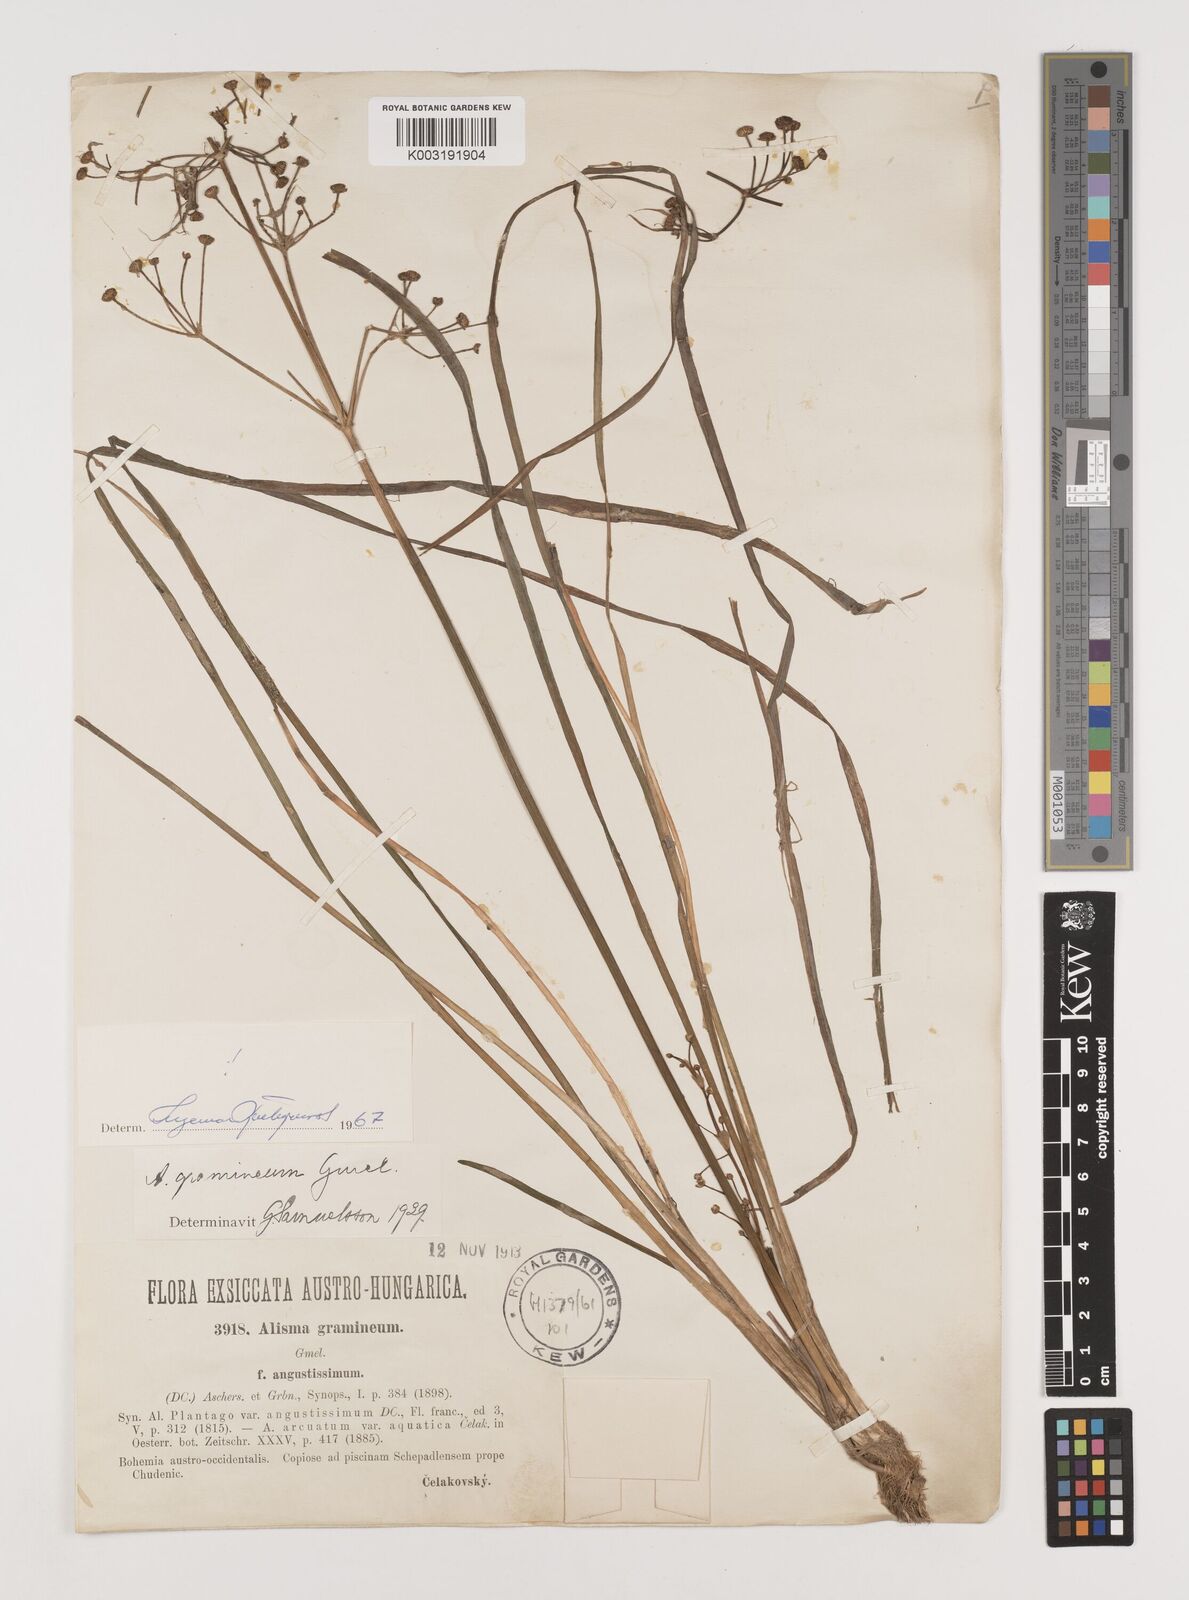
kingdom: Plantae
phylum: Tracheophyta
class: Liliopsida
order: Alismatales
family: Alismataceae
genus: Alisma
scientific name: Alisma gramineum
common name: Ribbon-leaved water-plantain
